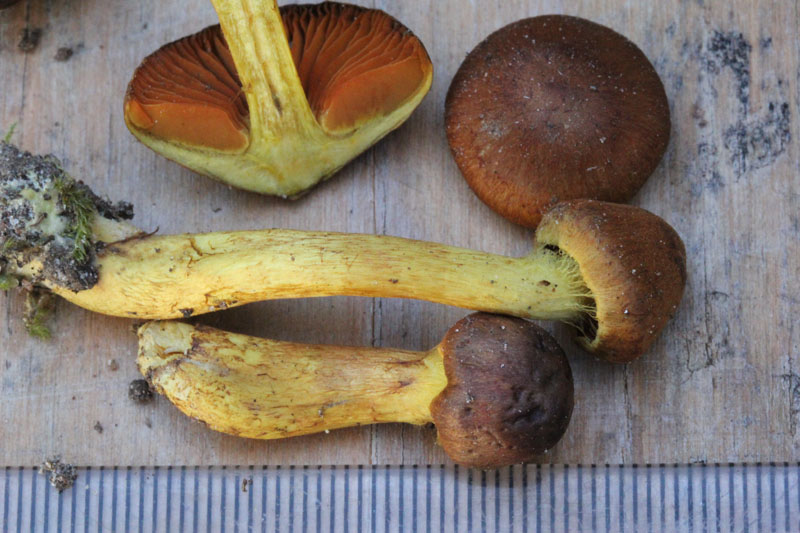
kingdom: Fungi
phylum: Basidiomycota
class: Agaricomycetes
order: Agaricales
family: Cortinariaceae
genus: Cortinarius
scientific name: Cortinarius cinnamomeus
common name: kanel-slørhat
